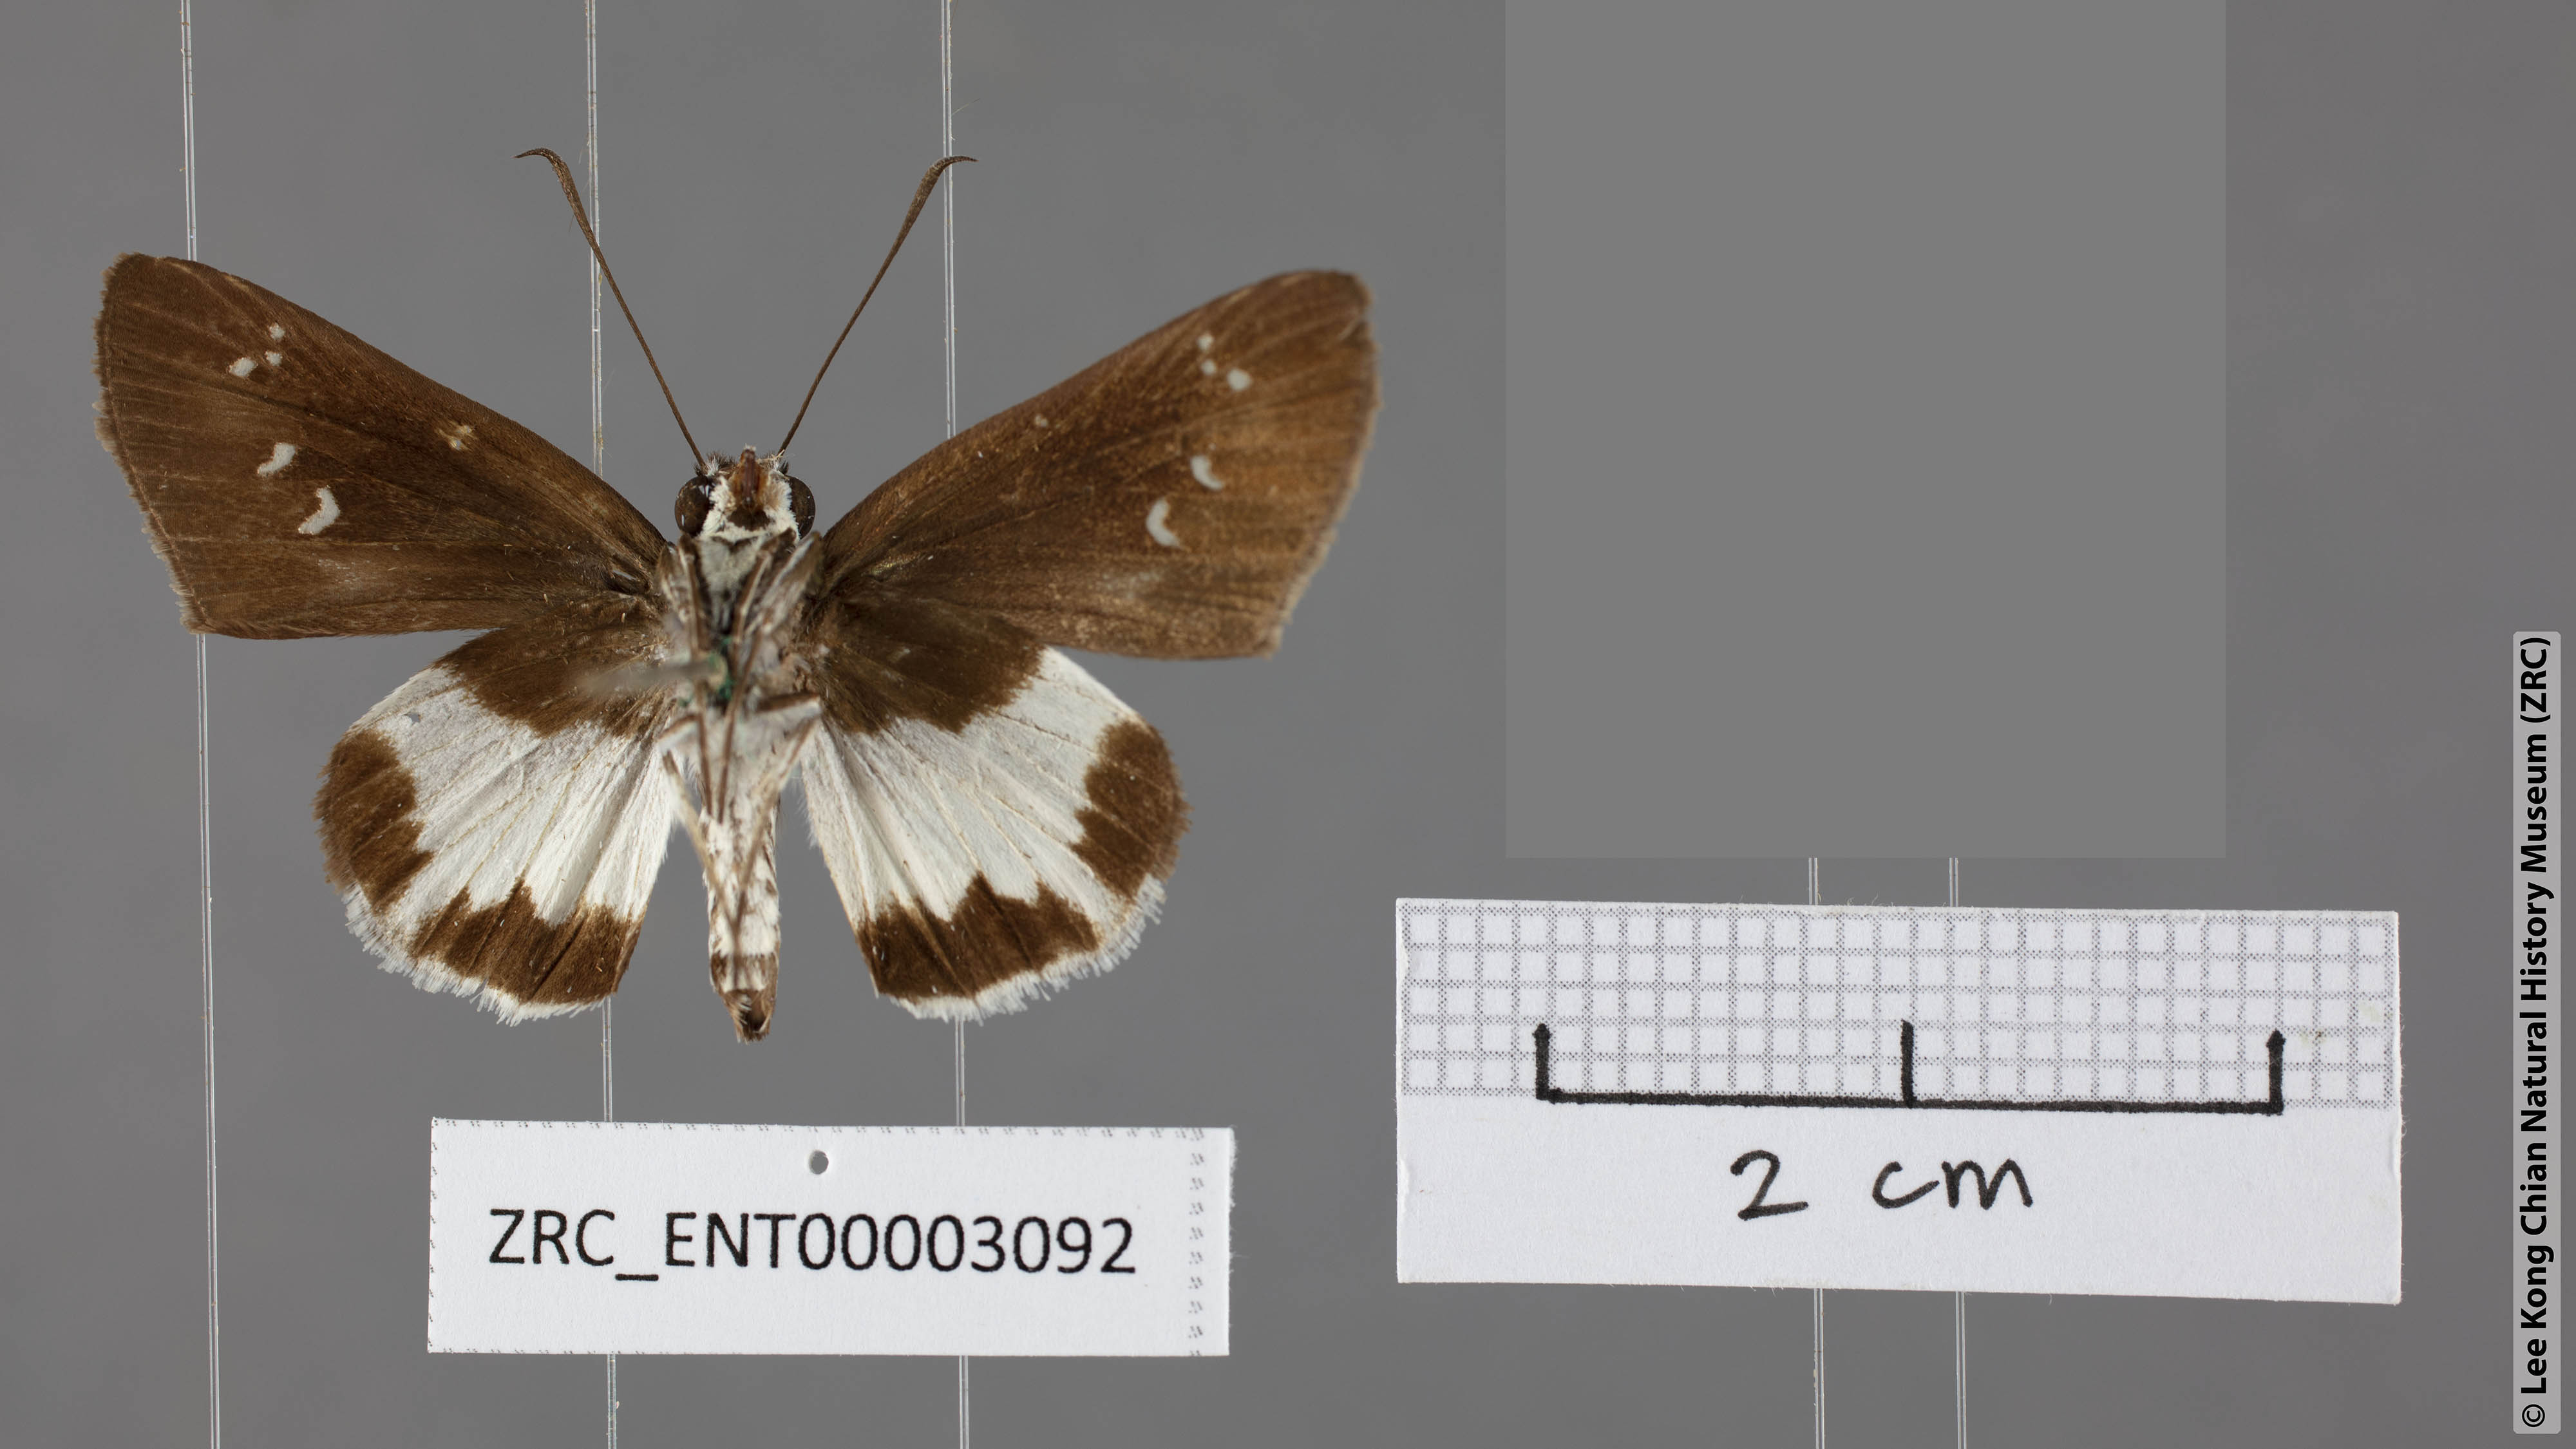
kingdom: Animalia
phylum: Arthropoda
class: Insecta
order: Lepidoptera
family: Hesperiidae
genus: Acerbas
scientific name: Acerbas anthea
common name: White palmer
